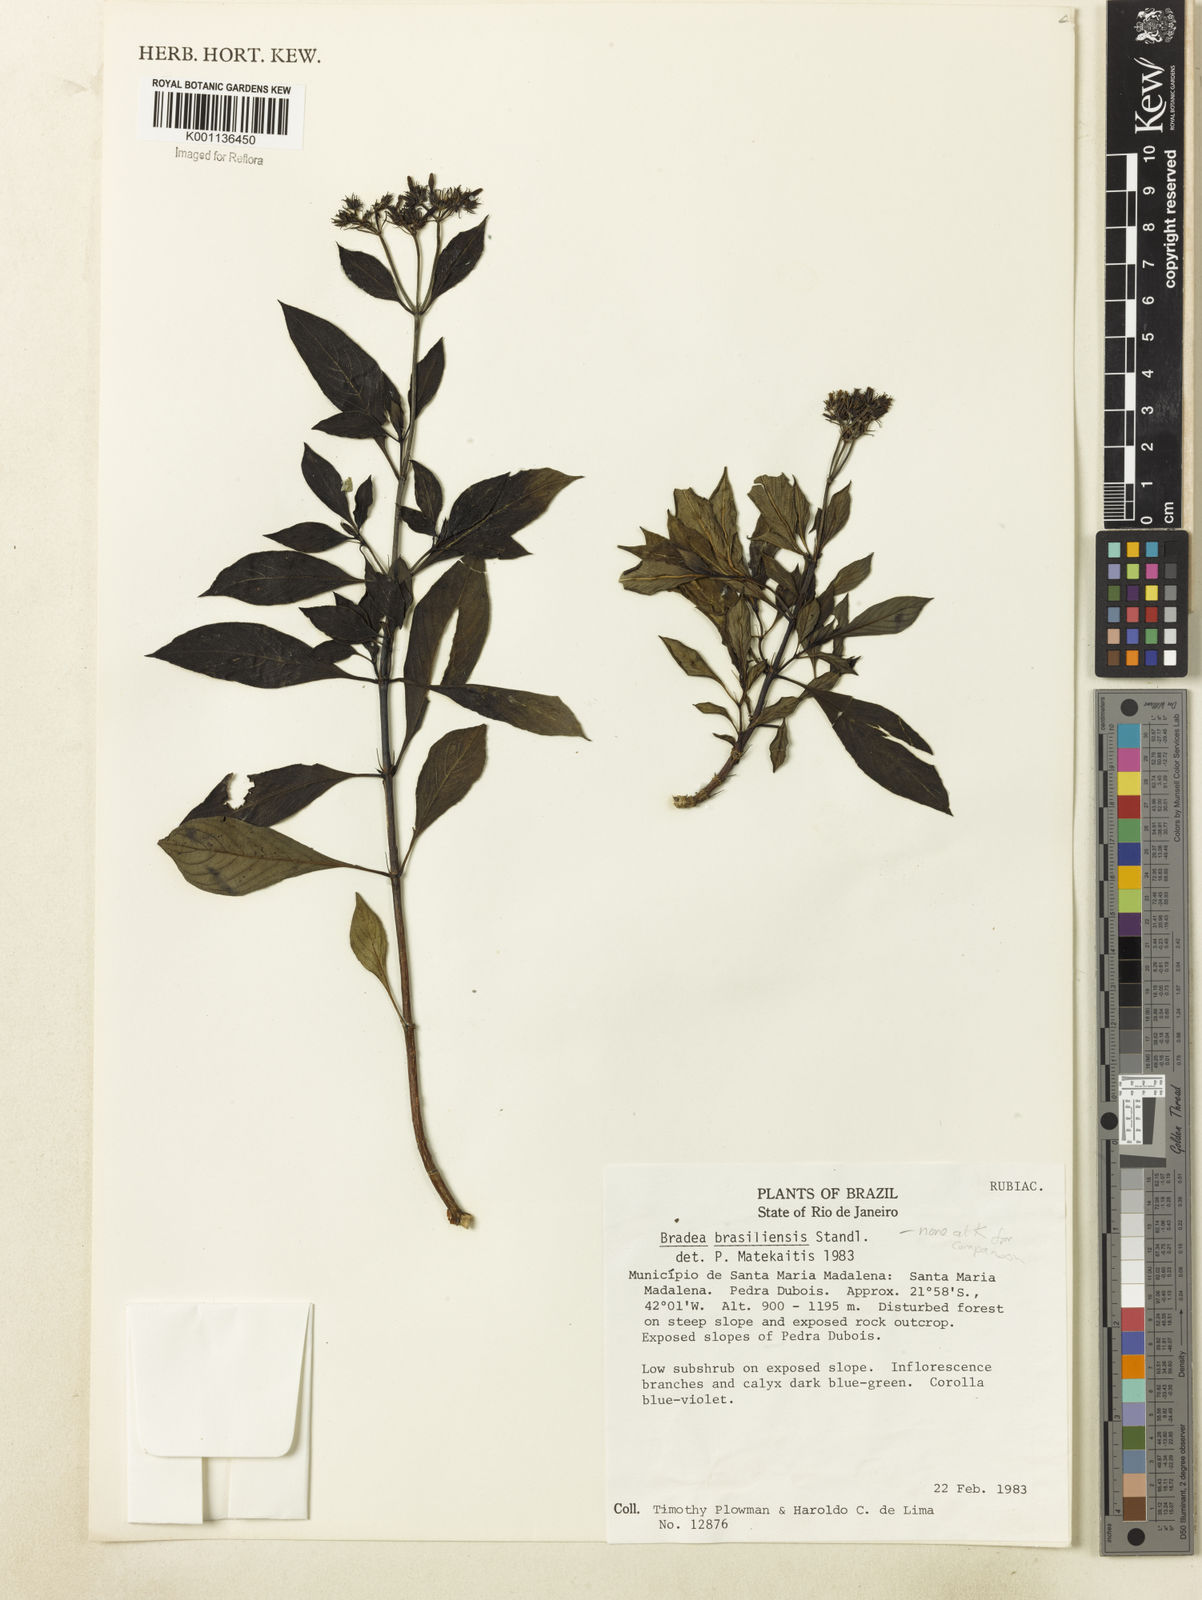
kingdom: Plantae
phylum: Tracheophyta
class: Magnoliopsida
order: Gentianales
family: Rubiaceae
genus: Bradea
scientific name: Bradea brasiliensis
